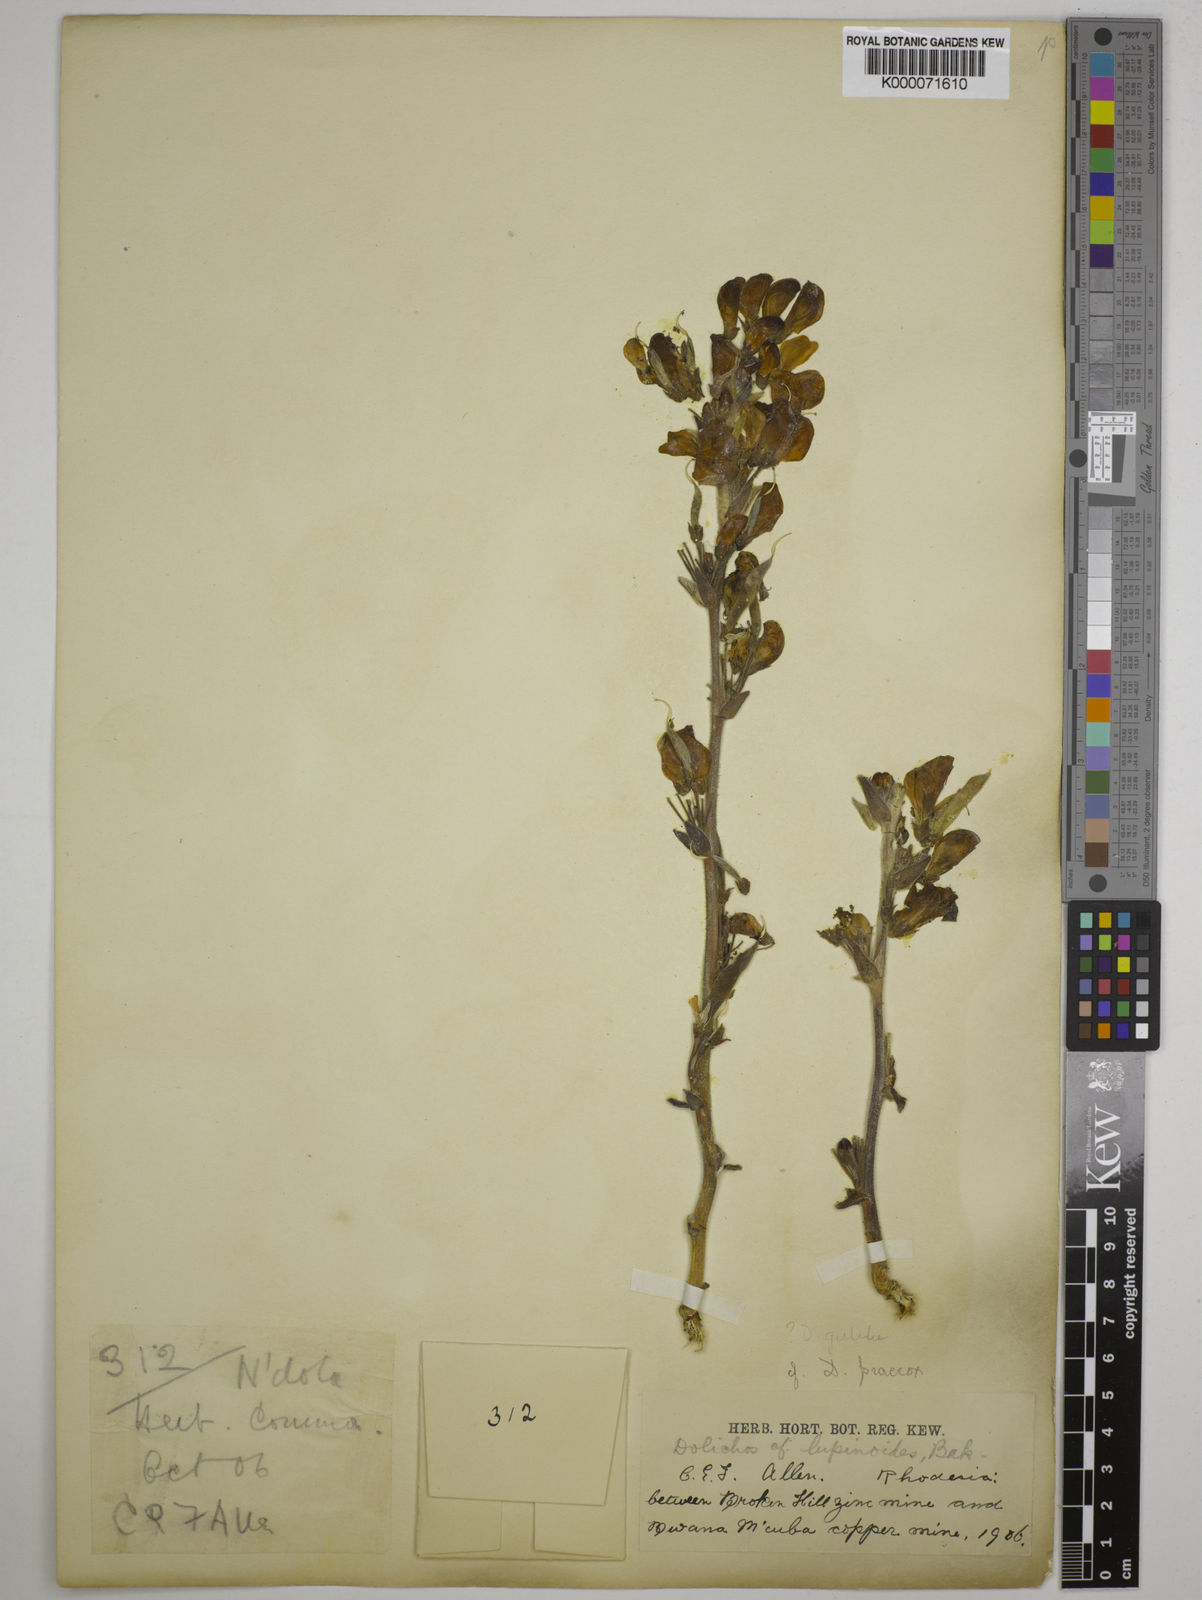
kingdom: Plantae
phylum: Tracheophyta
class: Magnoliopsida
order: Fabales
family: Fabaceae
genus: Dolichos
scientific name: Dolichos gululu
